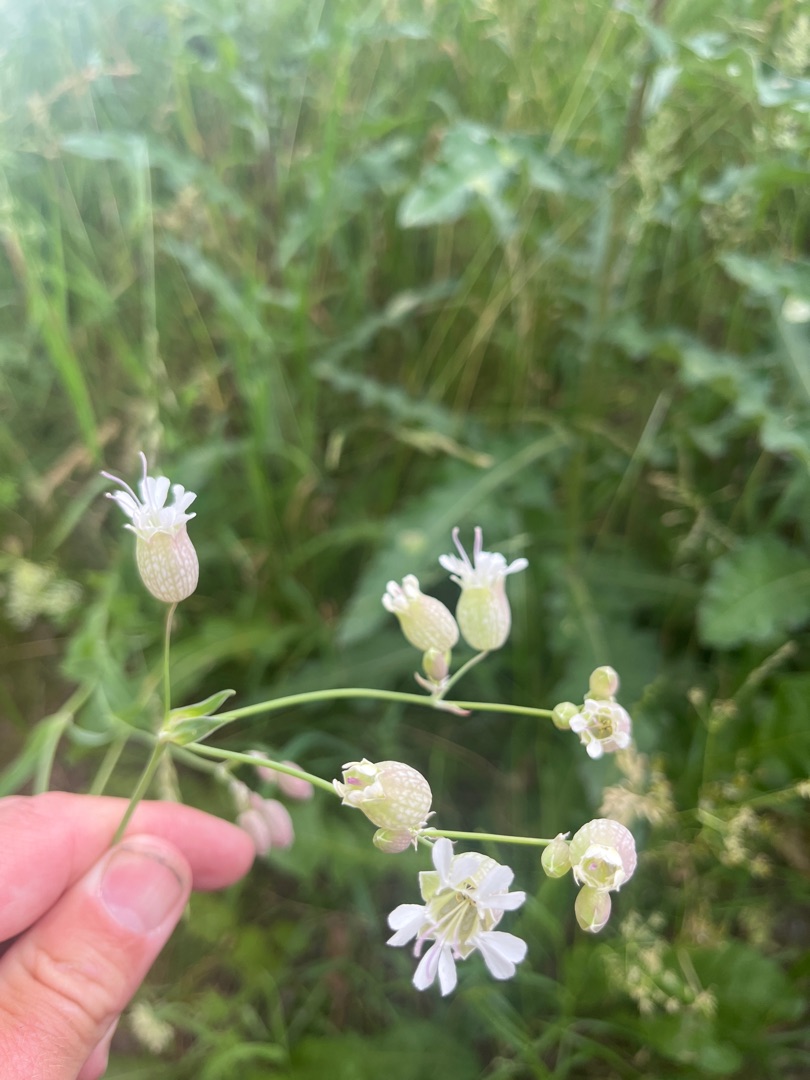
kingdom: Plantae
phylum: Tracheophyta
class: Magnoliopsida
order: Caryophyllales
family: Caryophyllaceae
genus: Silene
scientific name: Silene vulgaris
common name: Blæresmælde
